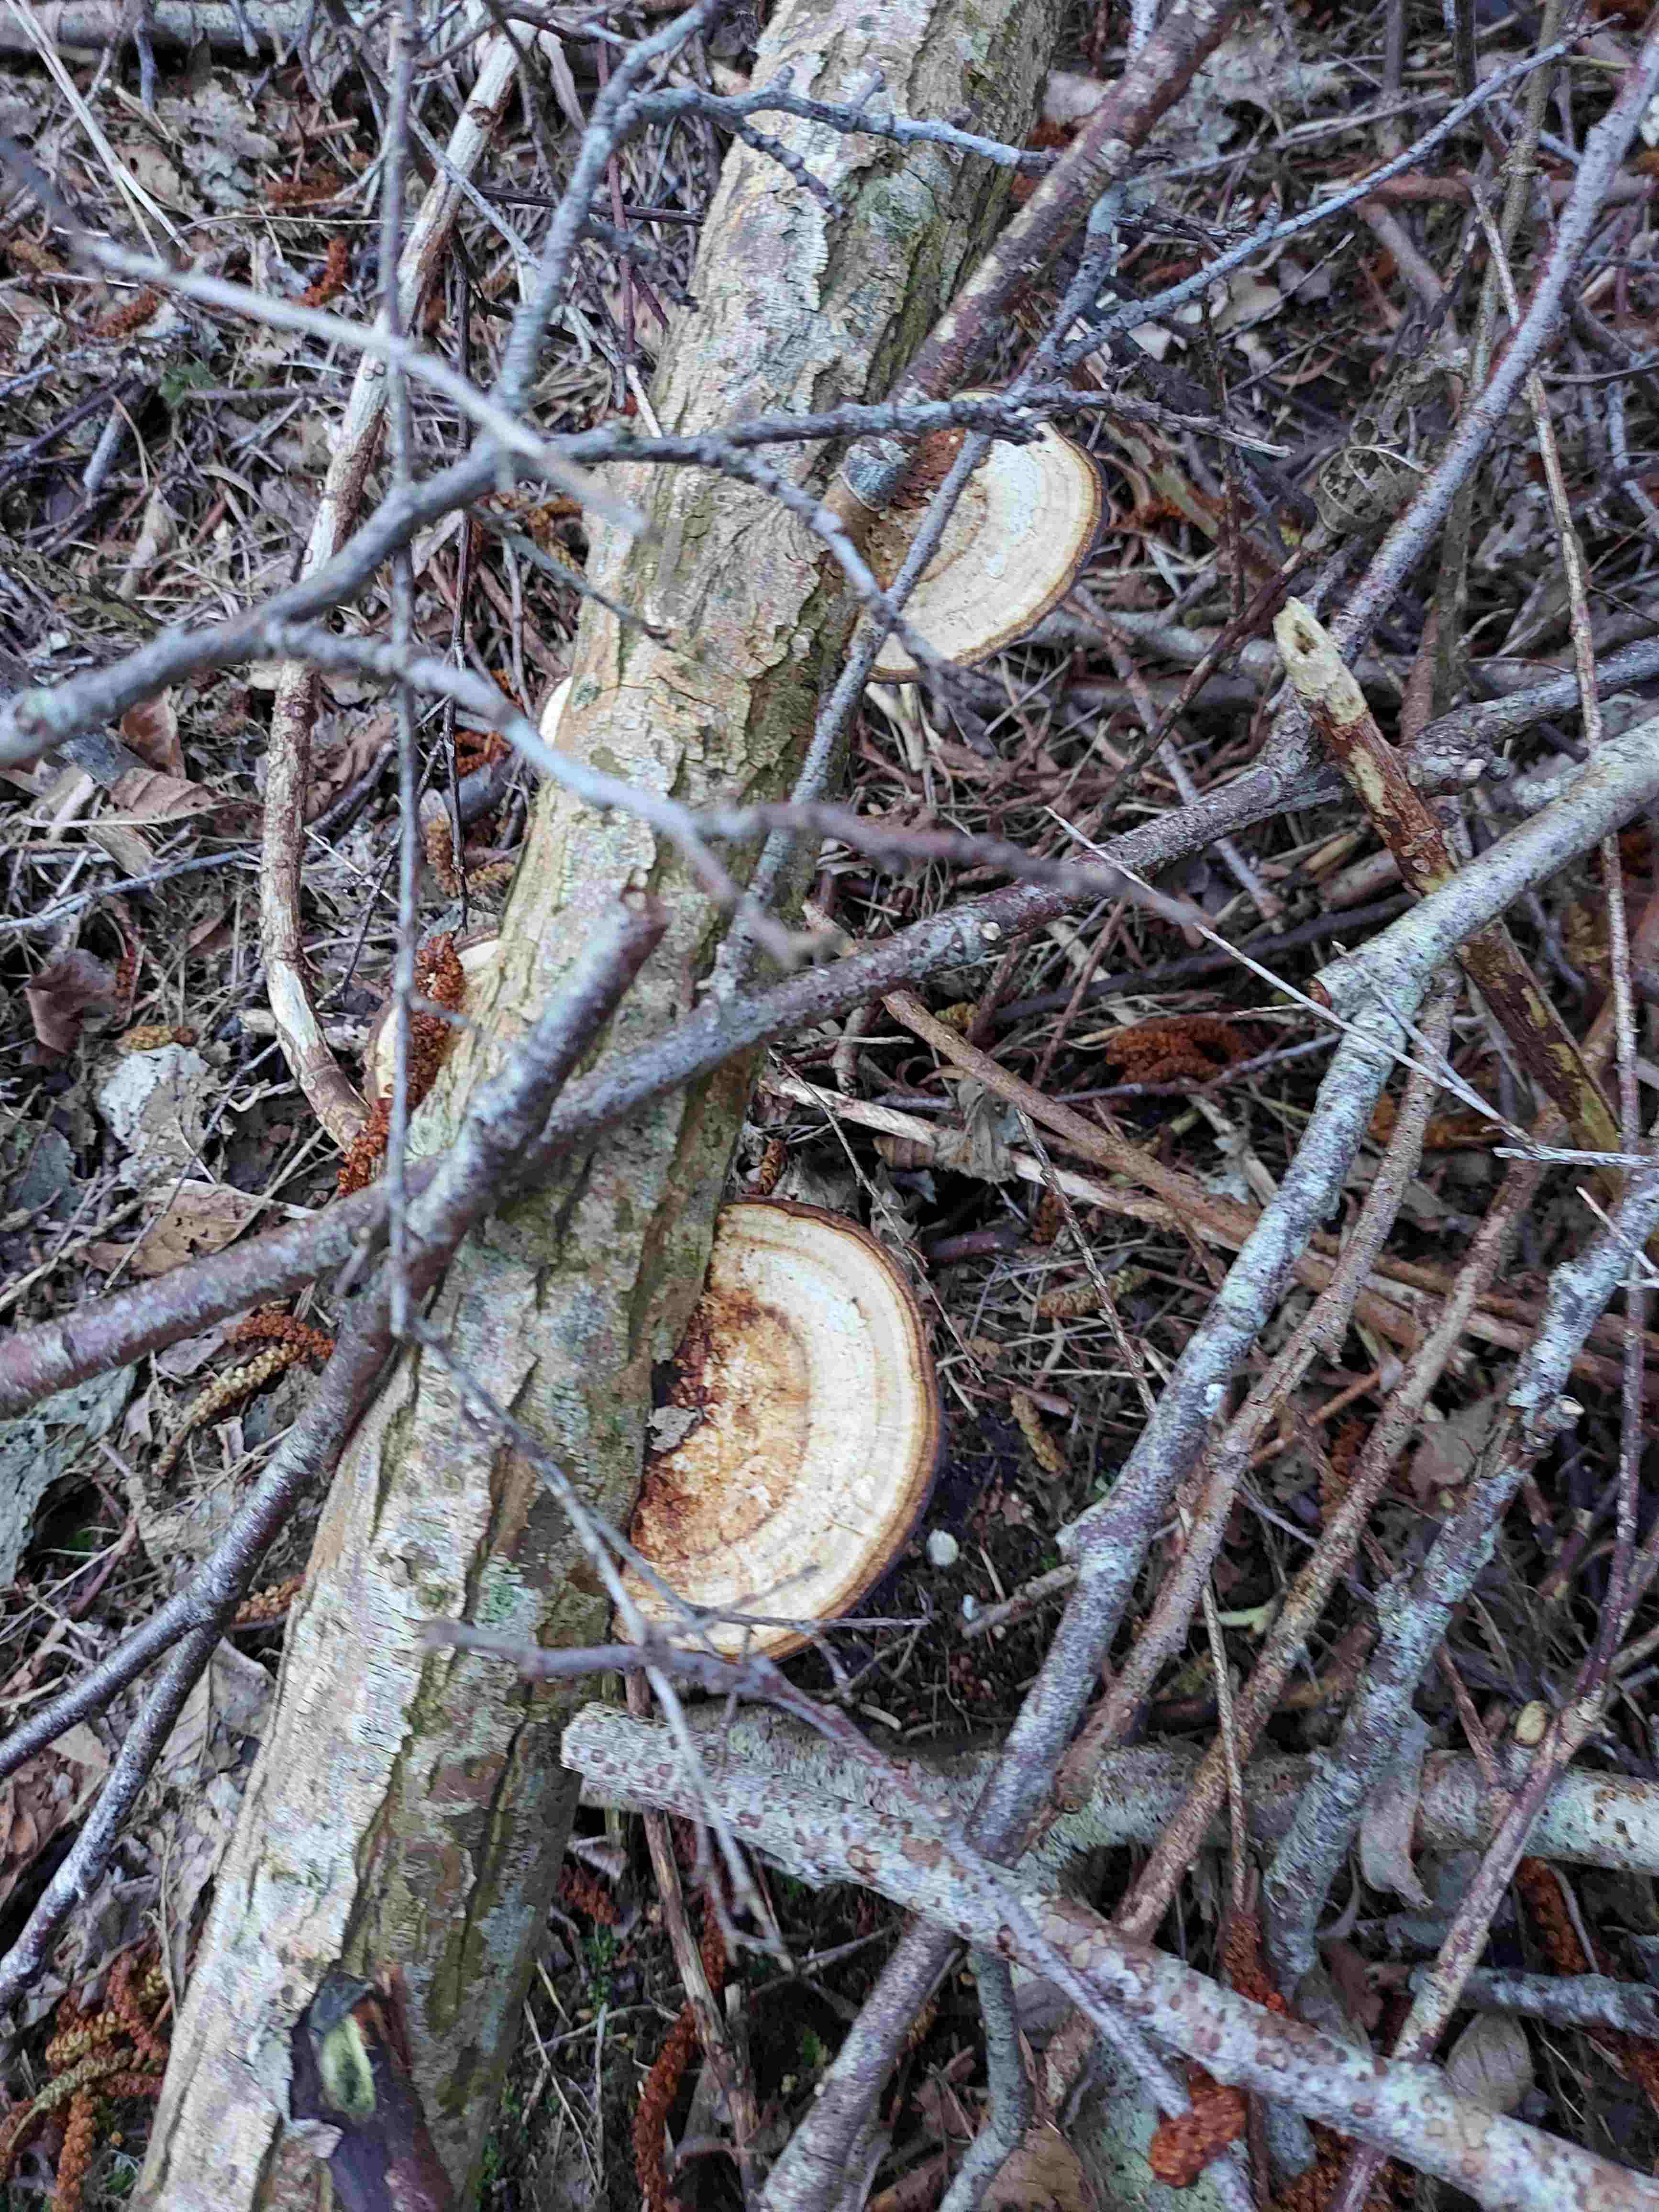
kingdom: Fungi
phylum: Basidiomycota
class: Agaricomycetes
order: Polyporales
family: Polyporaceae
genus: Daedaleopsis
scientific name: Daedaleopsis confragosa
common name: rødmende læderporesvamp
